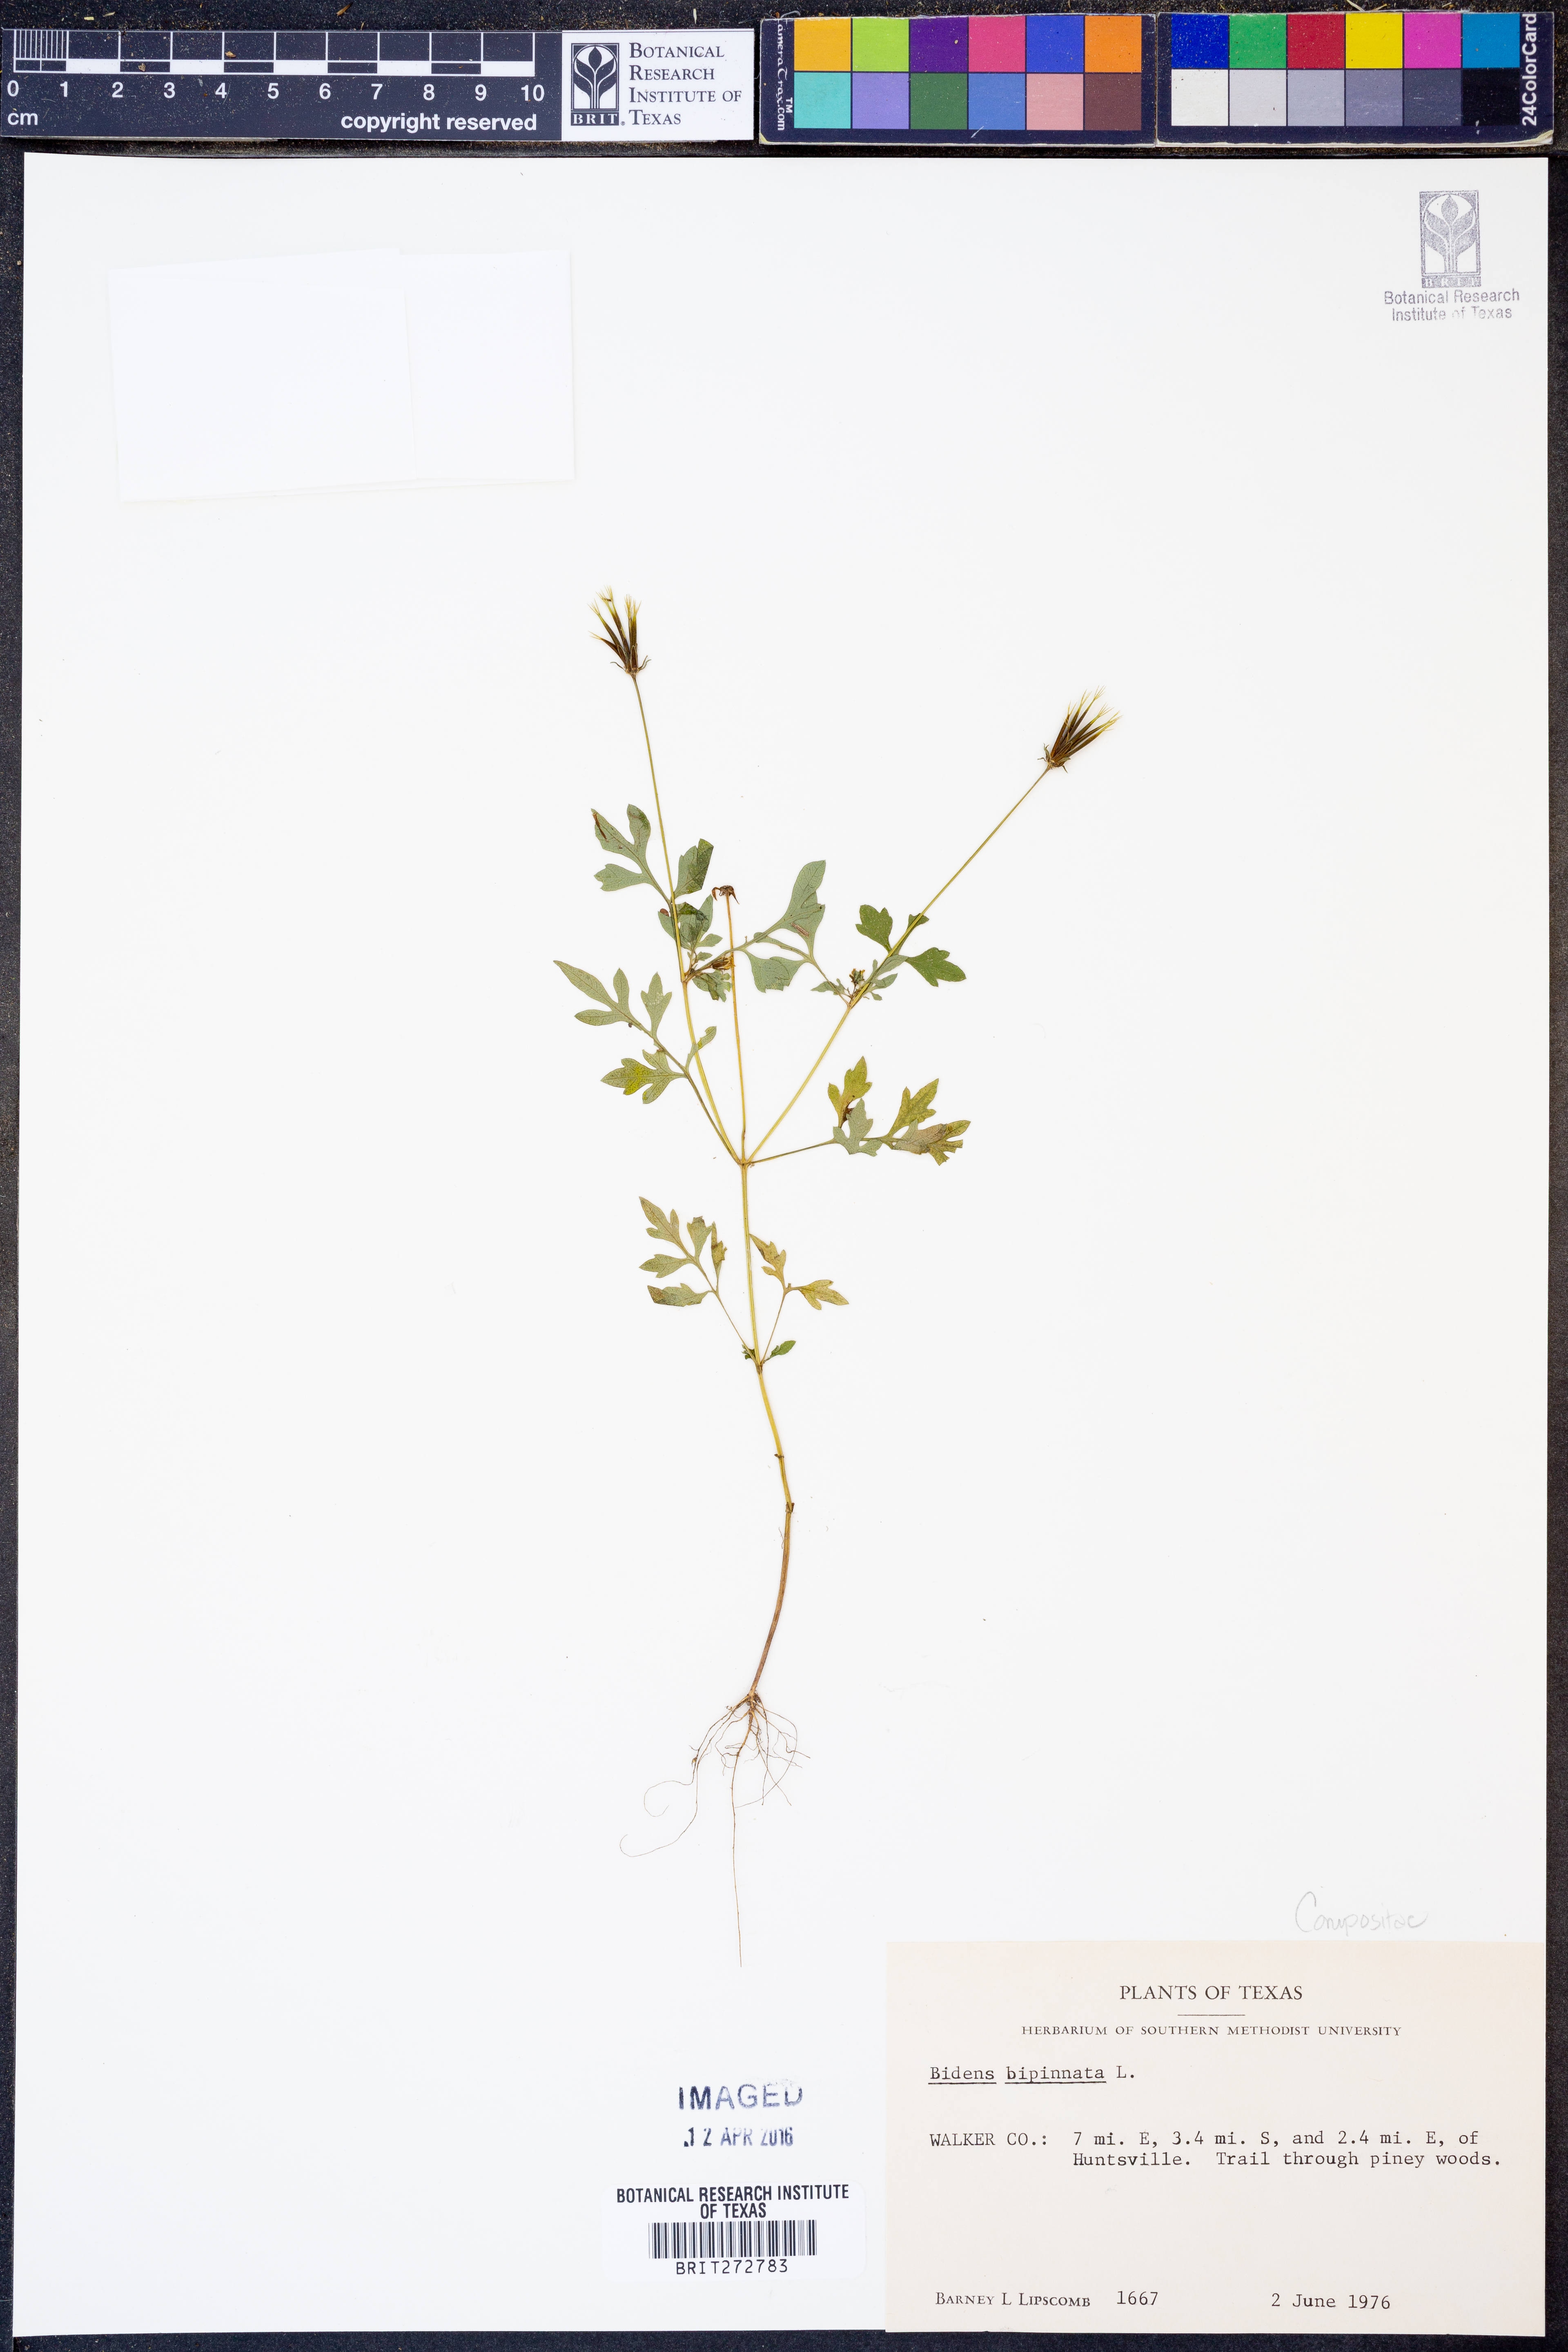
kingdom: Plantae
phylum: Tracheophyta
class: Magnoliopsida
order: Asterales
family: Asteraceae
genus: Bidens
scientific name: Bidens bipinnata
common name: Spanish-needles
